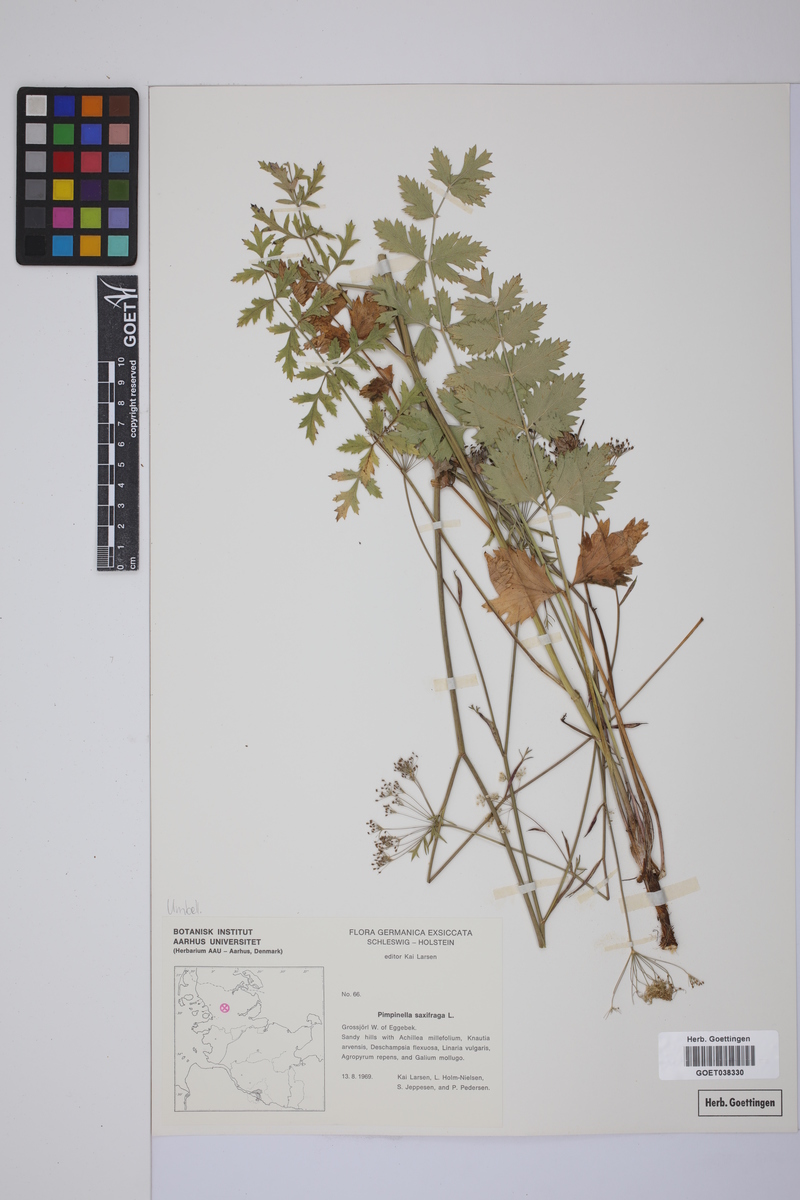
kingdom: Plantae
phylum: Tracheophyta
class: Magnoliopsida
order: Apiales
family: Apiaceae
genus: Pimpinella
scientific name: Pimpinella saxifraga
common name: Burnet-saxifrage
